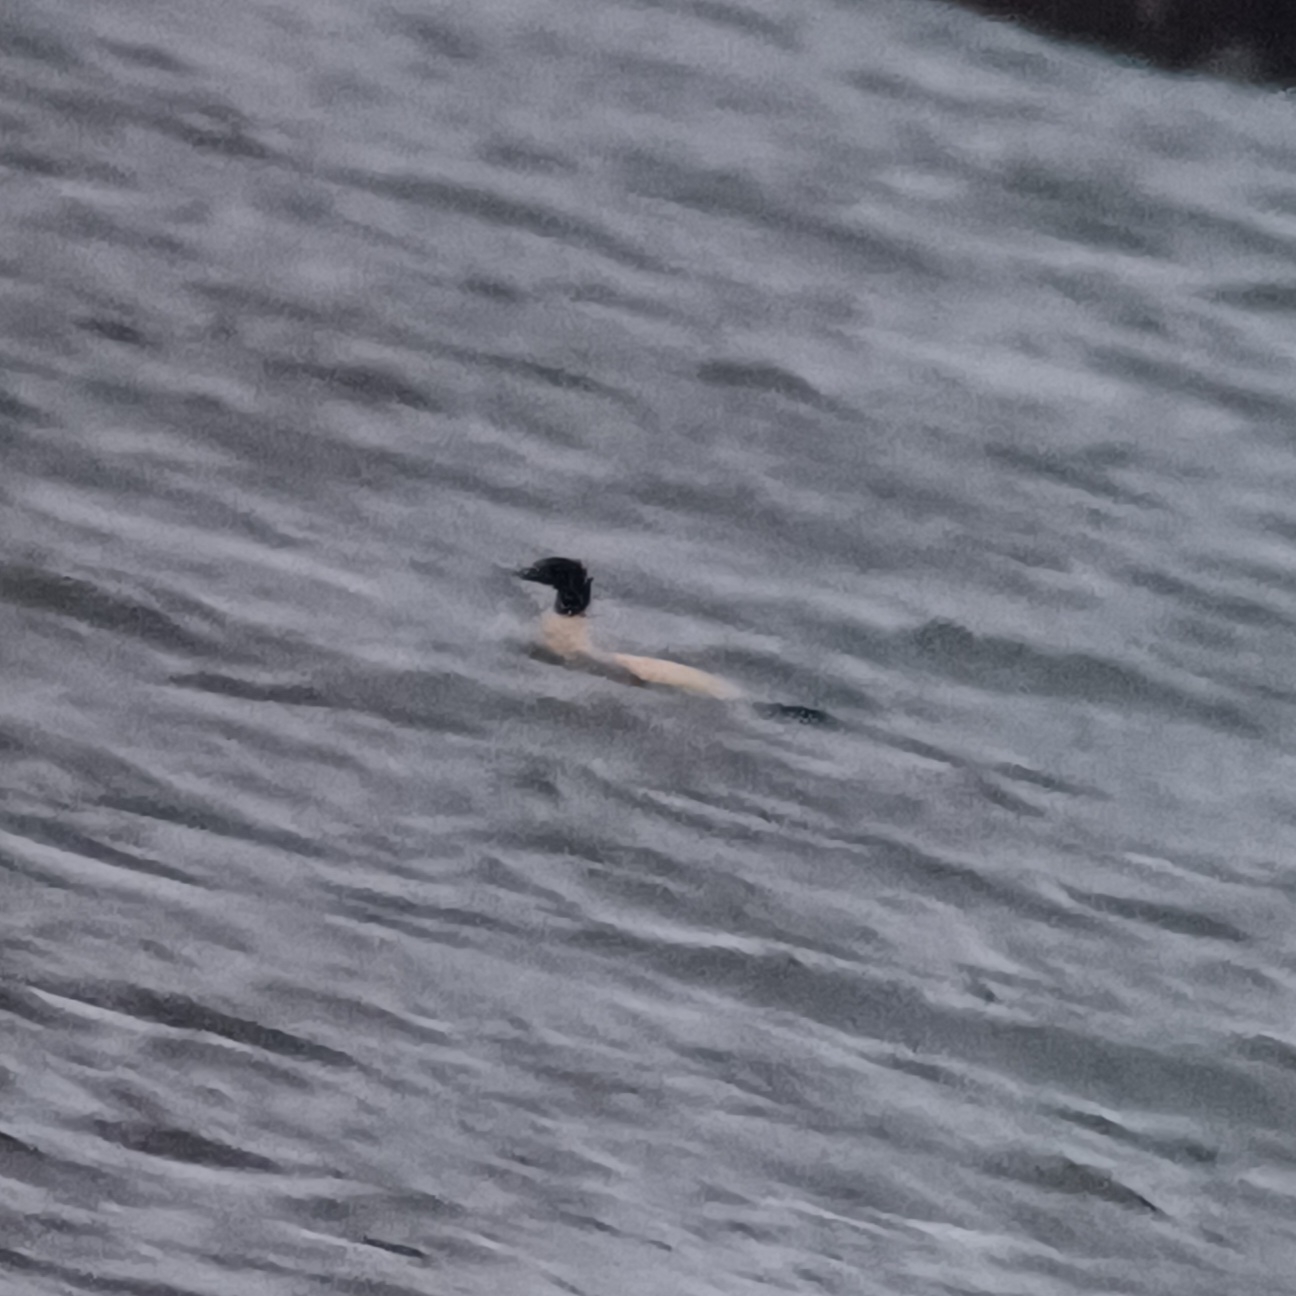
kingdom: Animalia
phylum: Chordata
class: Aves
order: Anseriformes
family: Anatidae
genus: Mergus
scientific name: Mergus merganser
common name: Stor skallesluger
